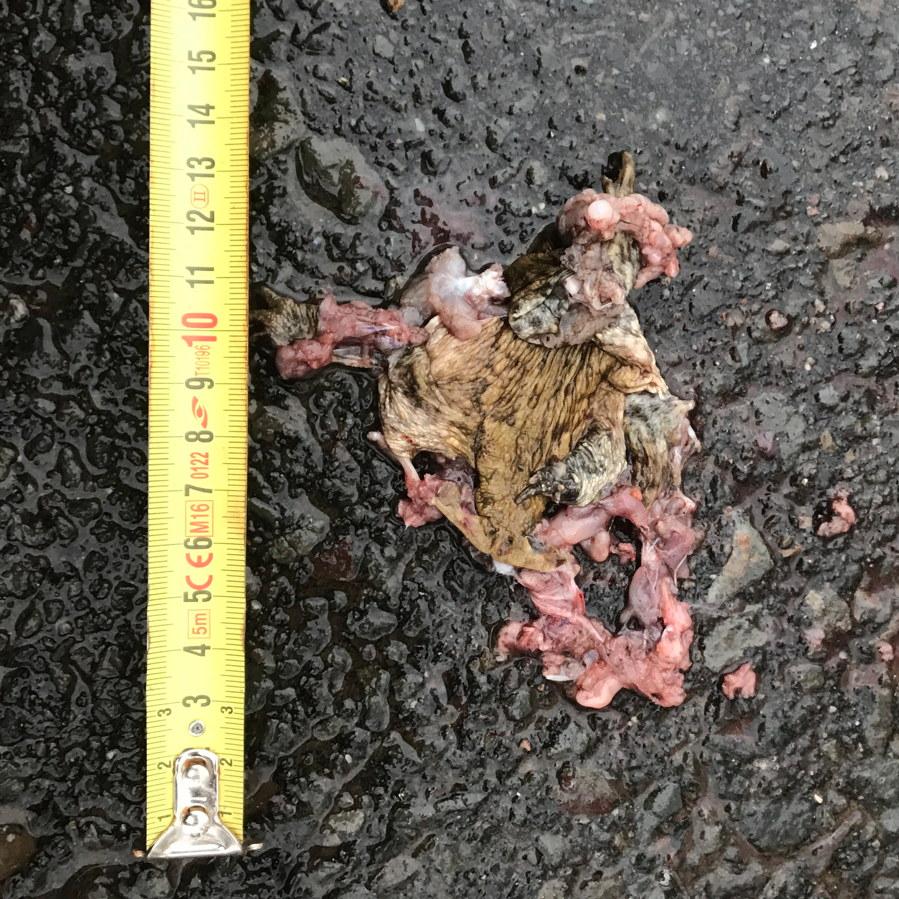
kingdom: Animalia
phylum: Chordata
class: Amphibia
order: Anura
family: Bufonidae
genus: Bufo
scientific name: Bufo bufo
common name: Common toad
